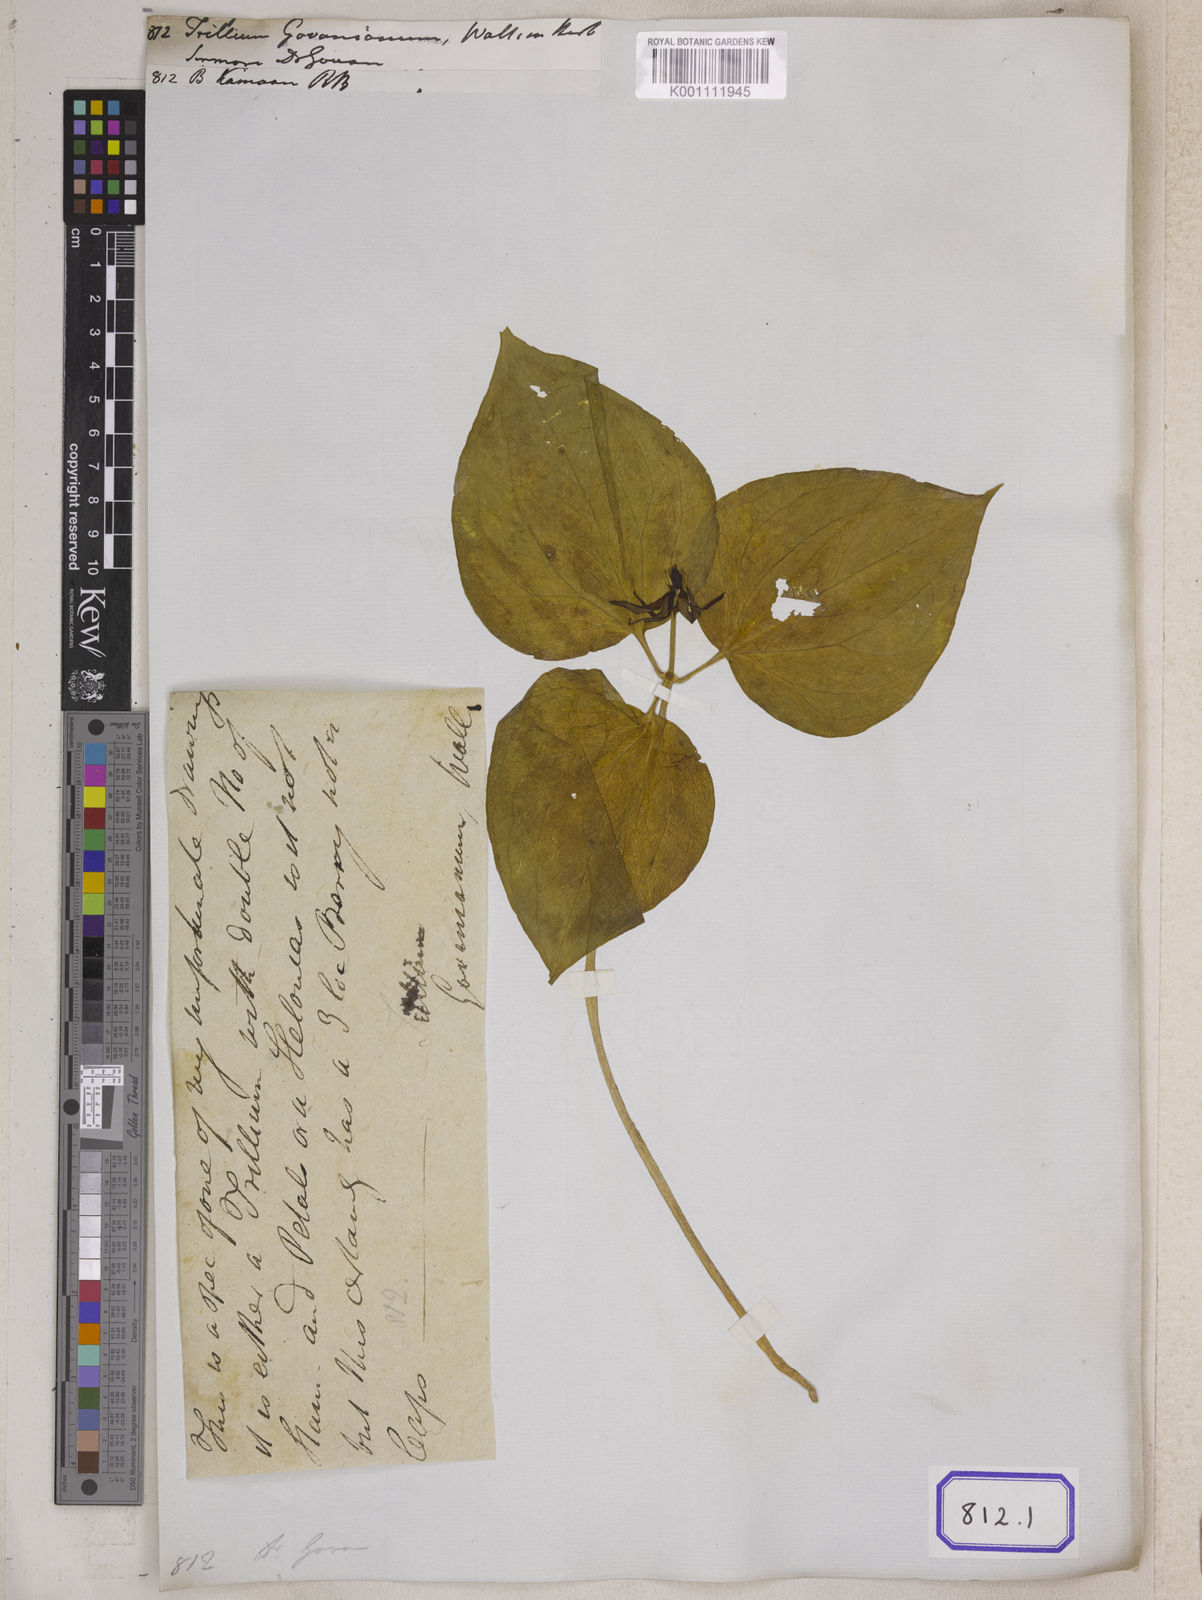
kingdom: Plantae
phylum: Tracheophyta
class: Liliopsida
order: Liliales
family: Melanthiaceae
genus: Trillium
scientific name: Trillium
